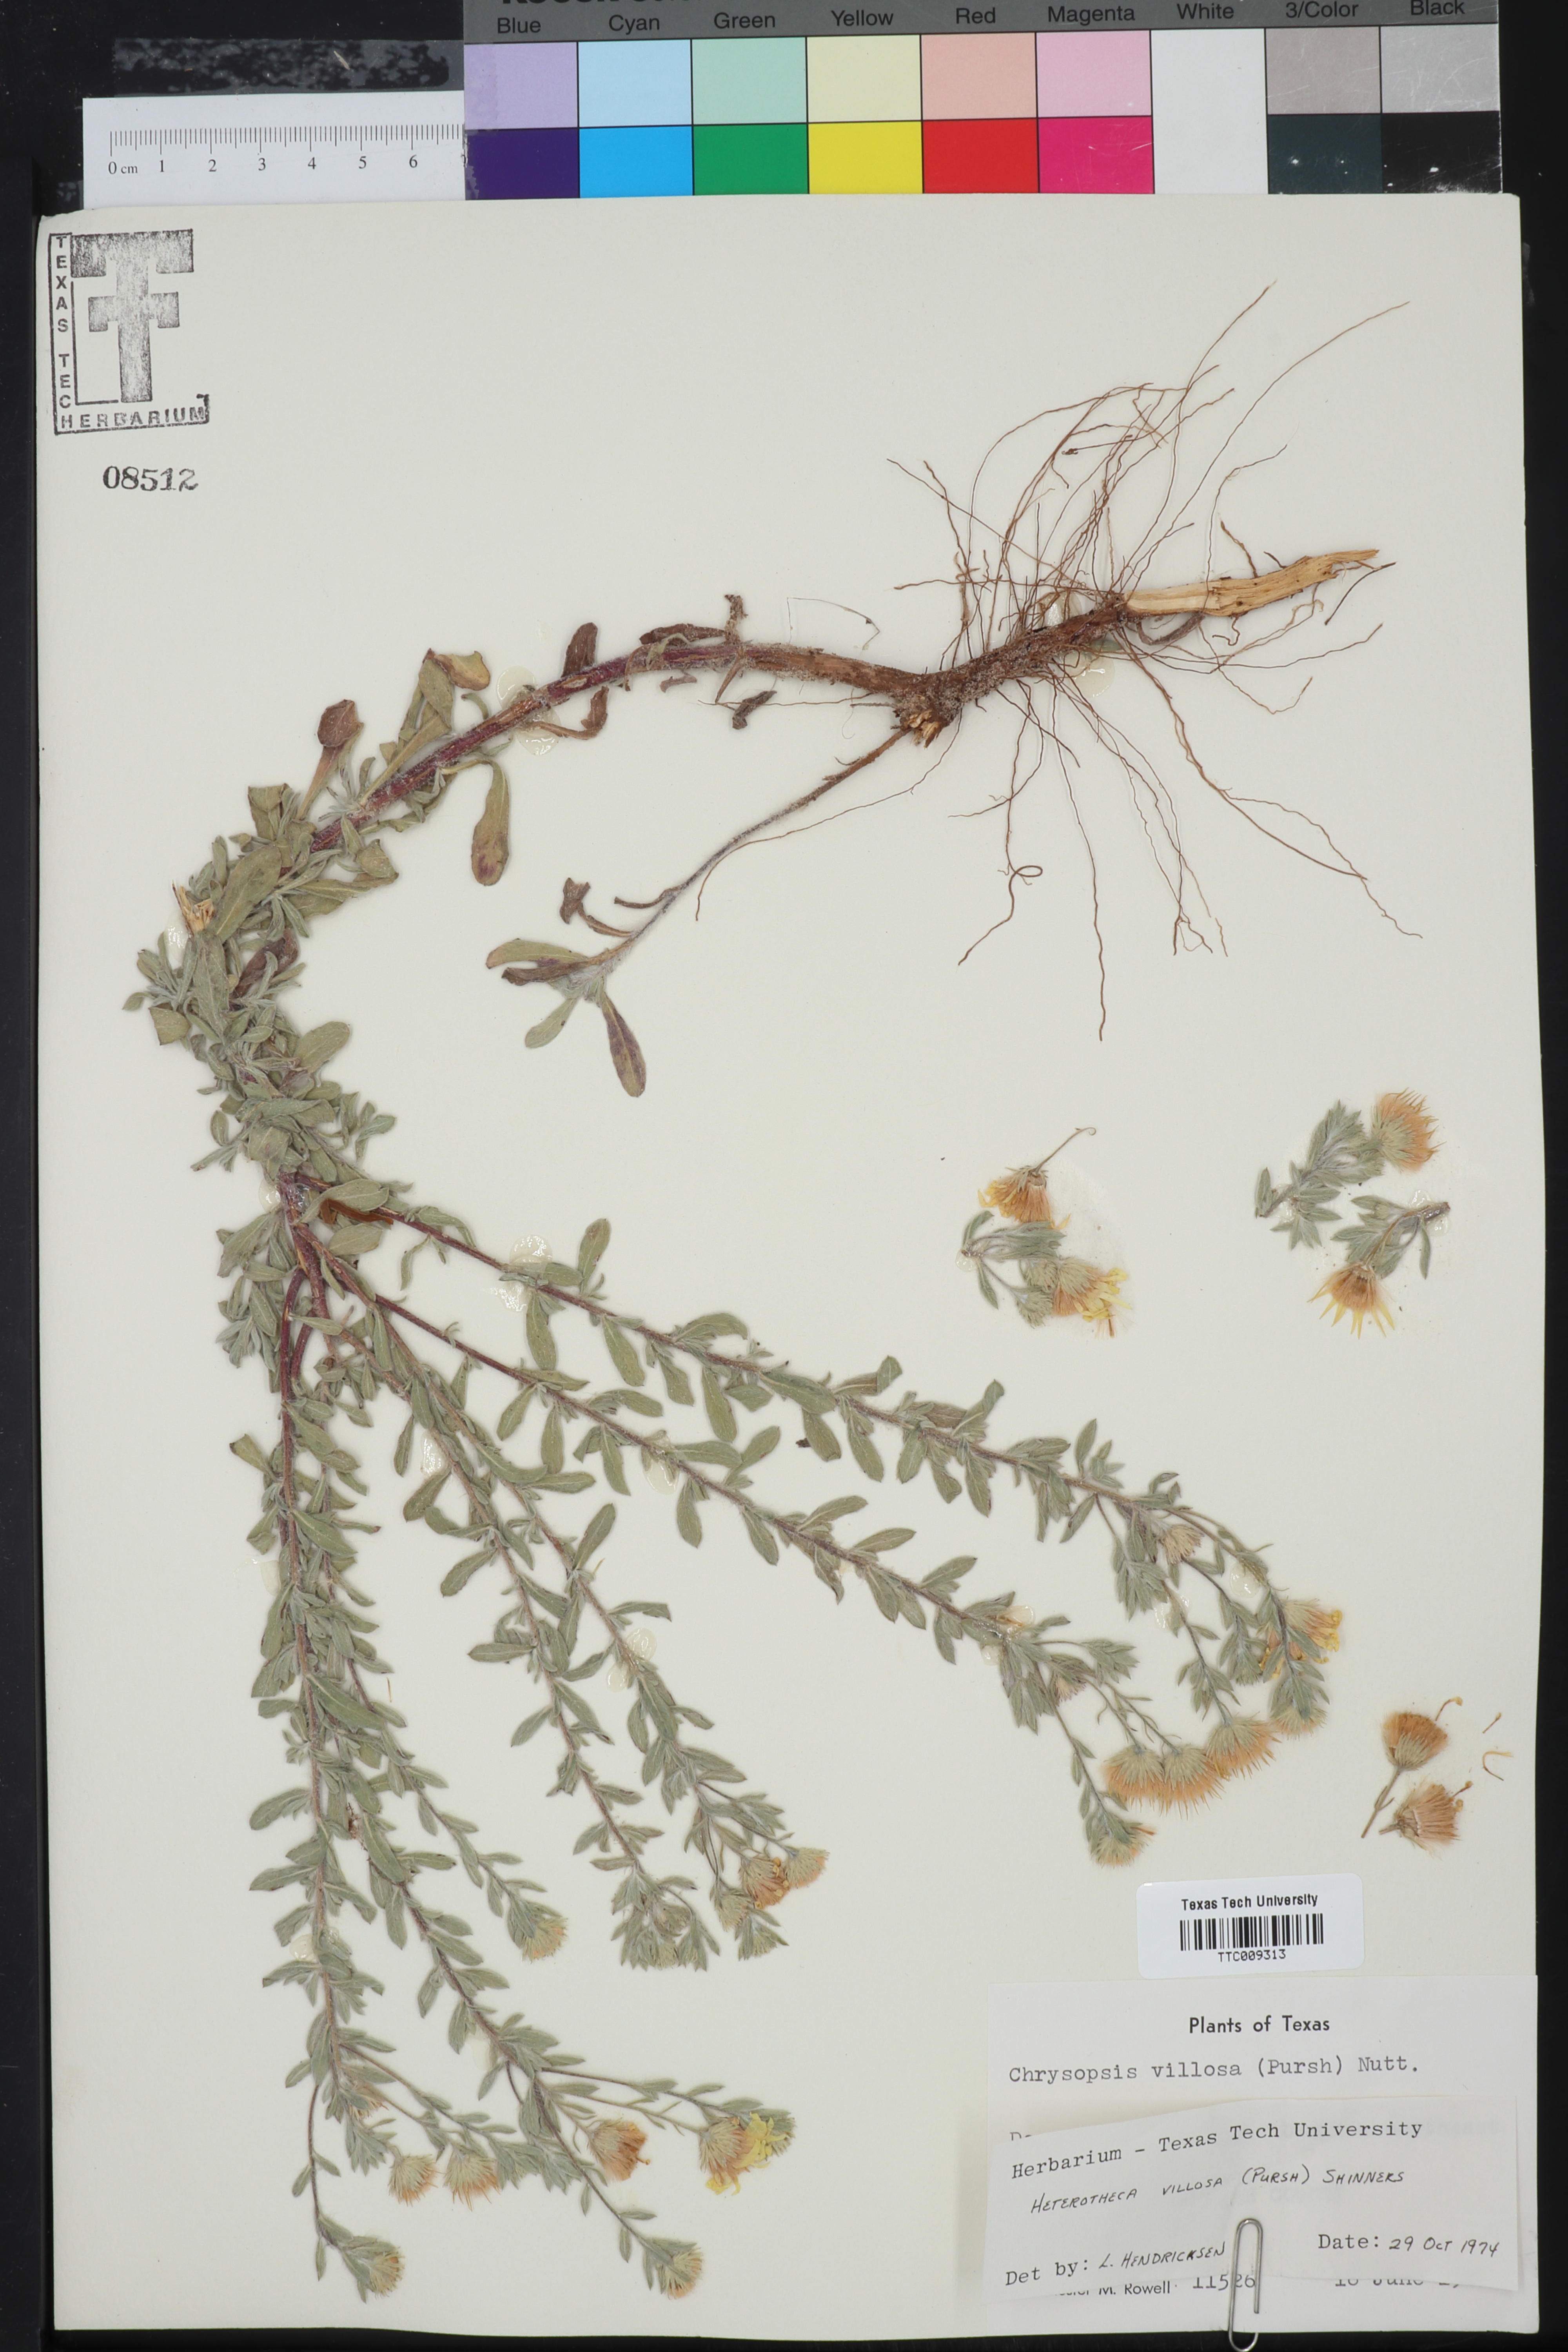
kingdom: Plantae
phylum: Tracheophyta
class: Magnoliopsida
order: Asterales
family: Asteraceae
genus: Heterotheca
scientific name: Heterotheca villosa
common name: Hairy false goldenaster
